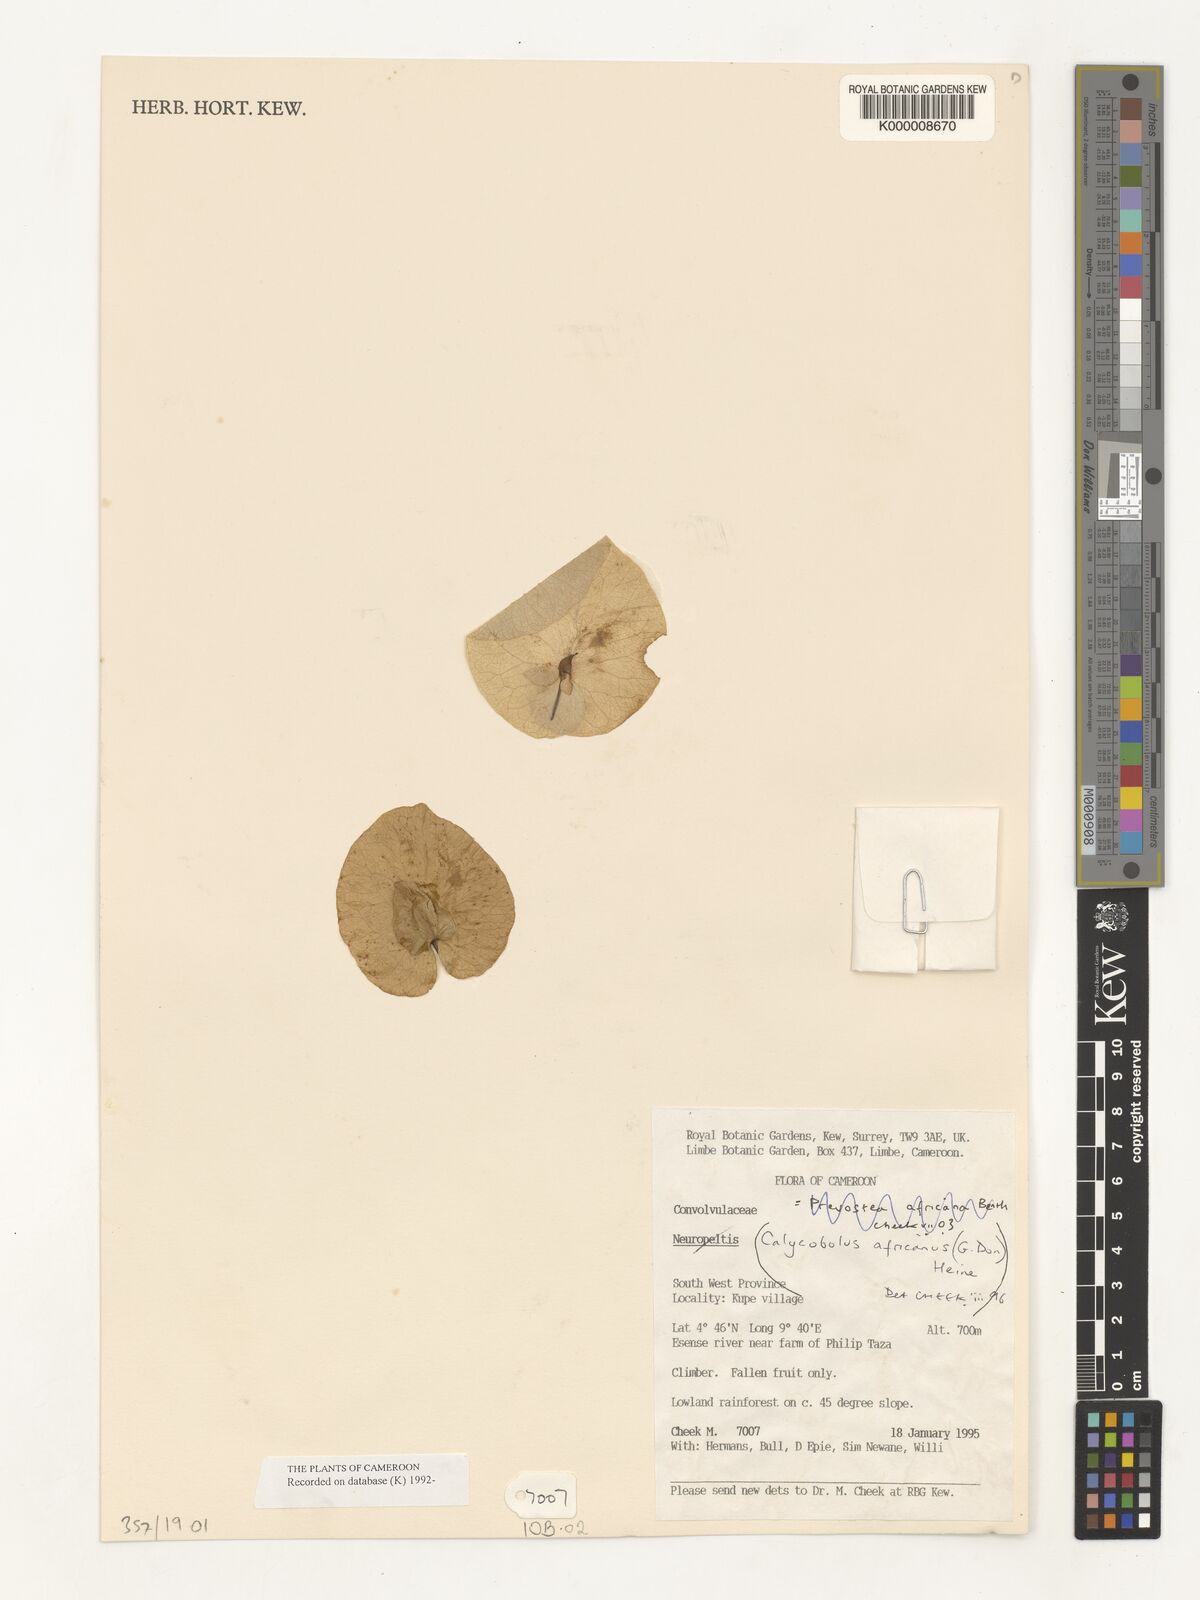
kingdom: Plantae
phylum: Tracheophyta
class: Magnoliopsida
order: Solanales
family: Convolvulaceae
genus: Calycobolus
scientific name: Calycobolus africanus
